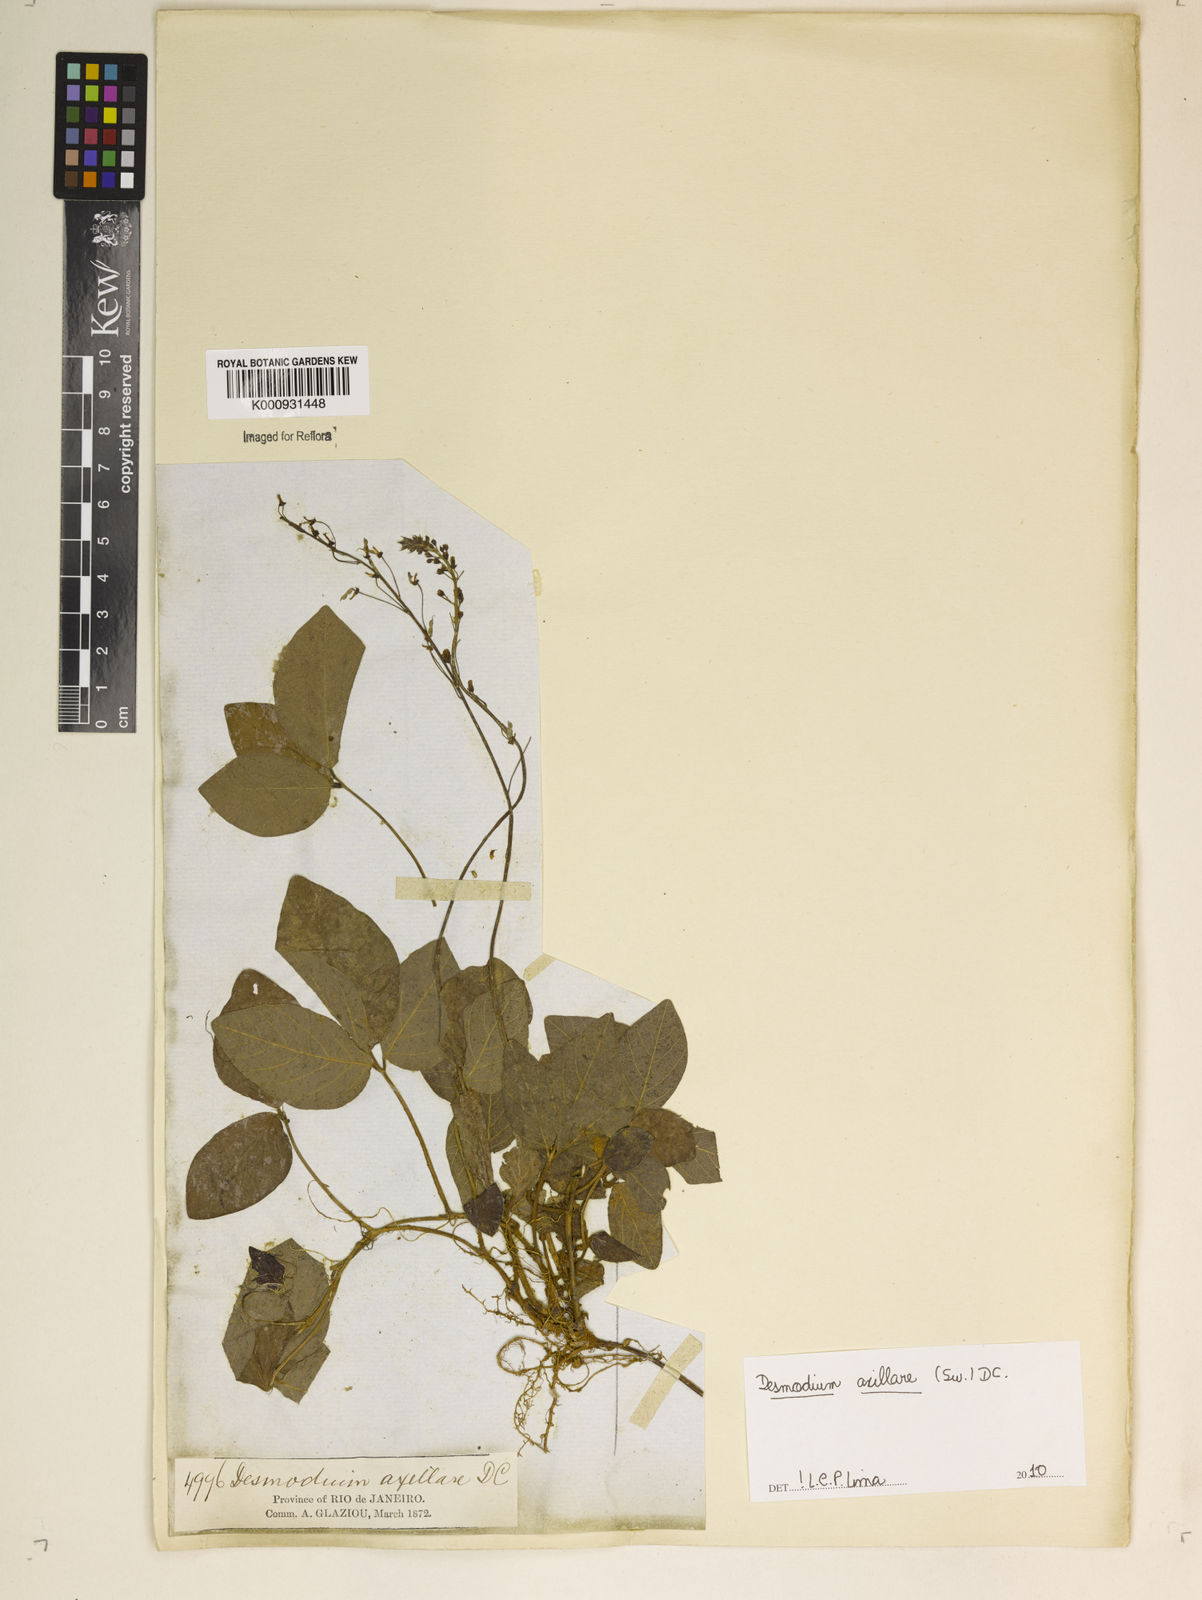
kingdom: Plantae
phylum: Tracheophyta
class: Magnoliopsida
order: Fabales
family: Fabaceae
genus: Desmodium
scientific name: Desmodium axillare
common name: Wire with
